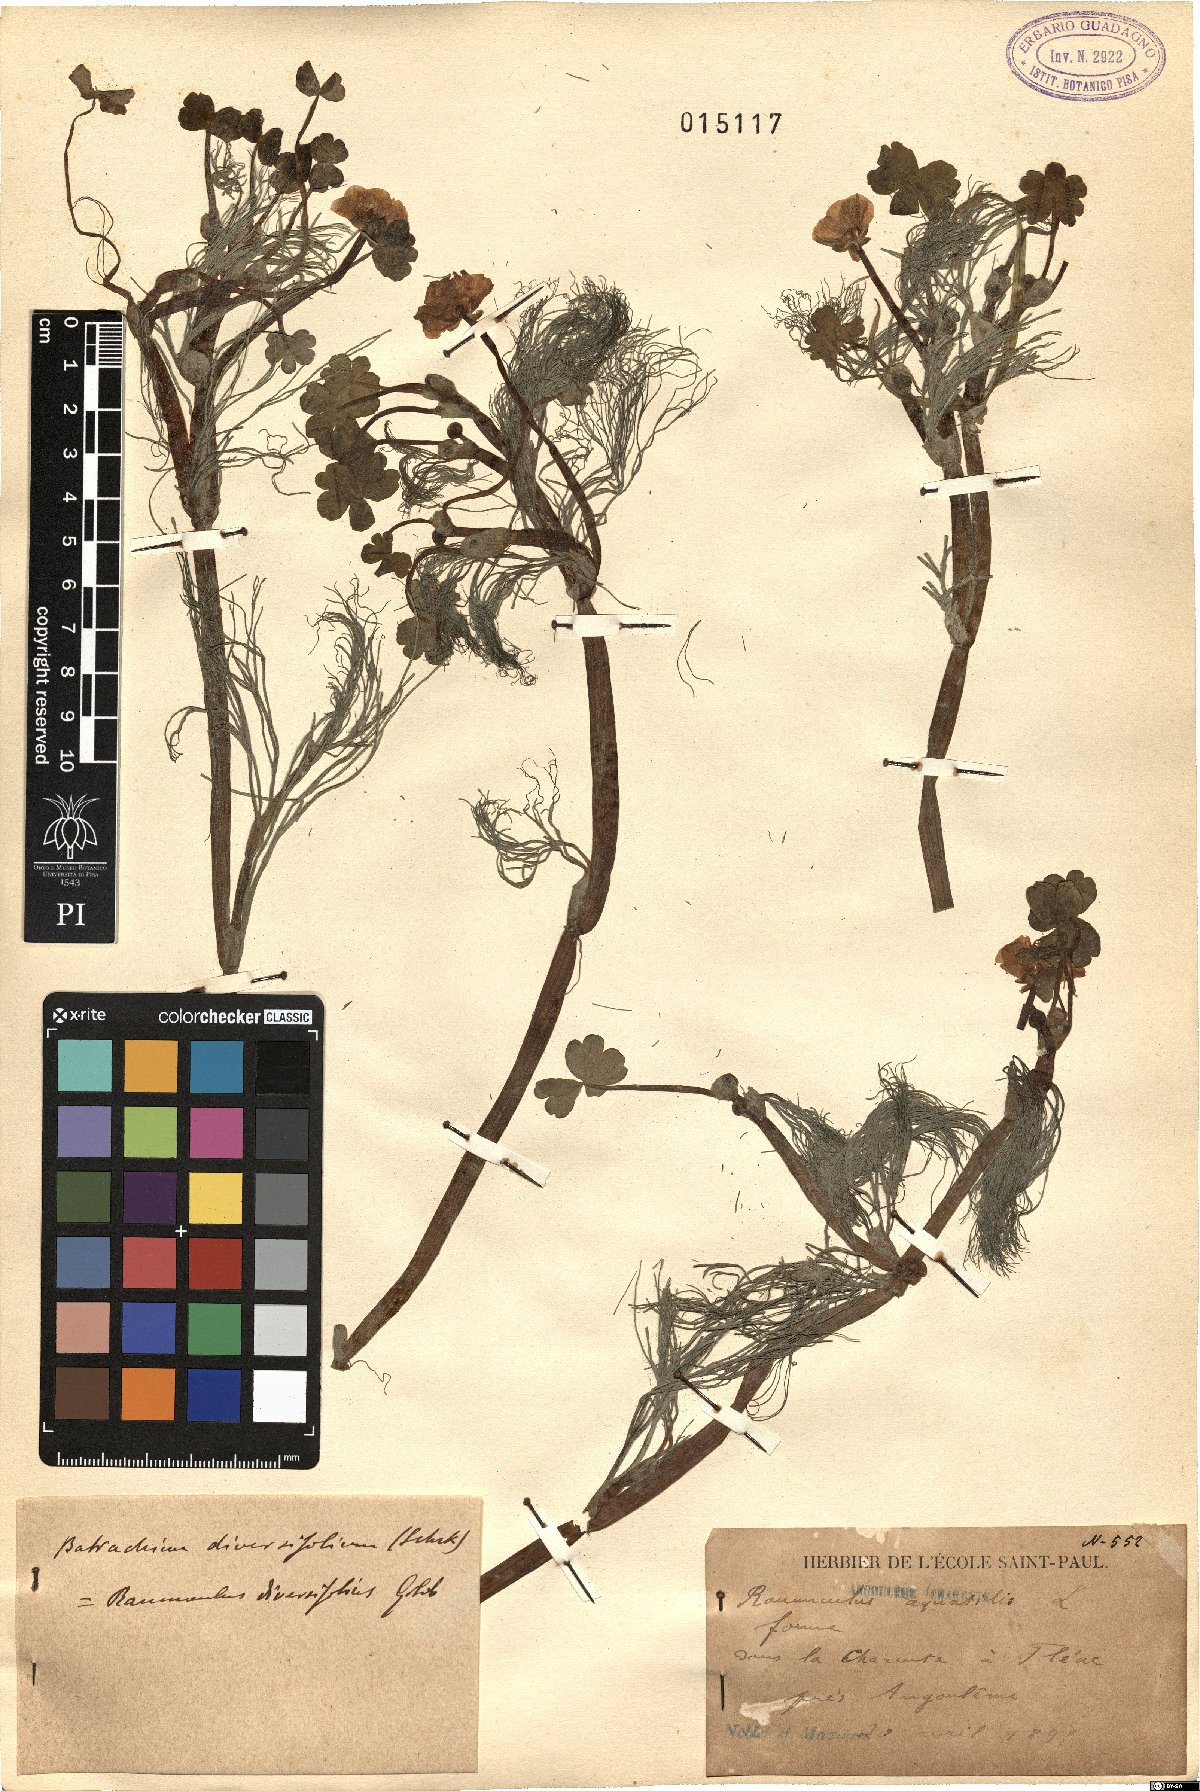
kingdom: Plantae
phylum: Tracheophyta
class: Magnoliopsida
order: Ranunculales
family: Ranunculaceae
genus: Ranunculus
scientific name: Ranunculus kurdicus
